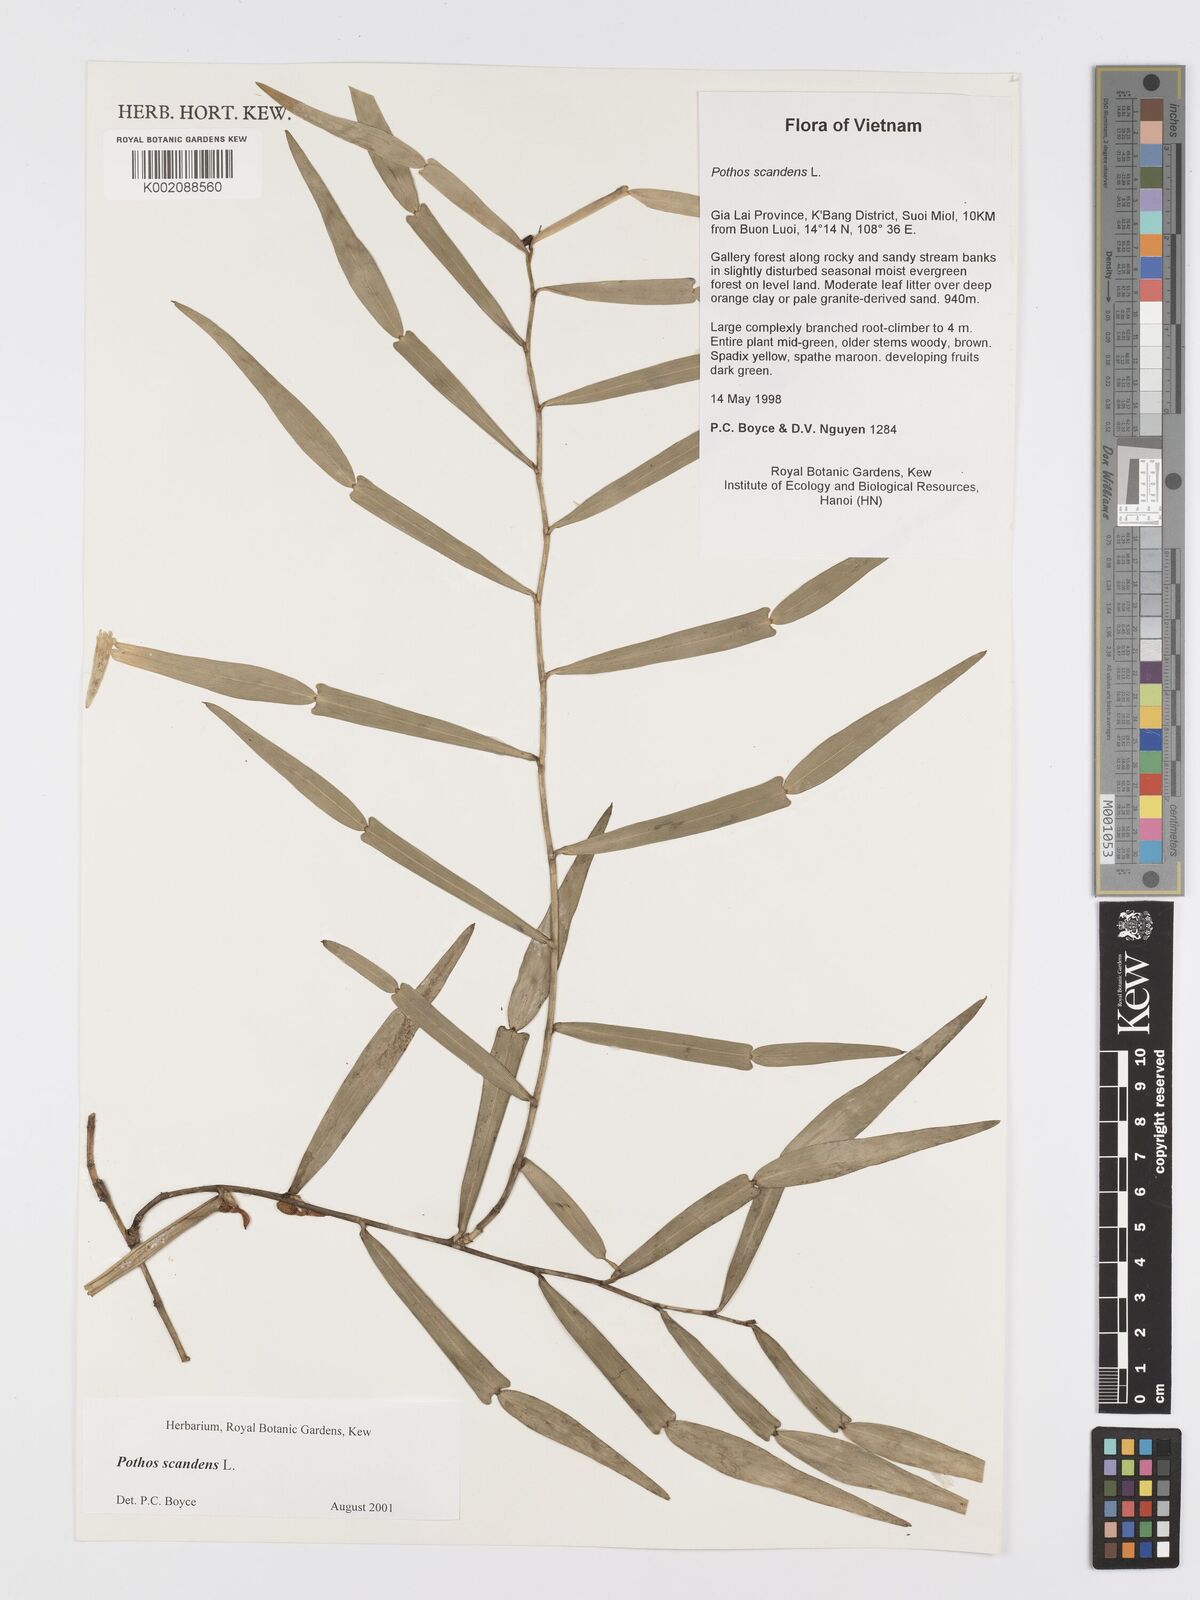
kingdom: Plantae
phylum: Tracheophyta
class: Liliopsida
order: Alismatales
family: Araceae
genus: Pothos
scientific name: Pothos scandens
